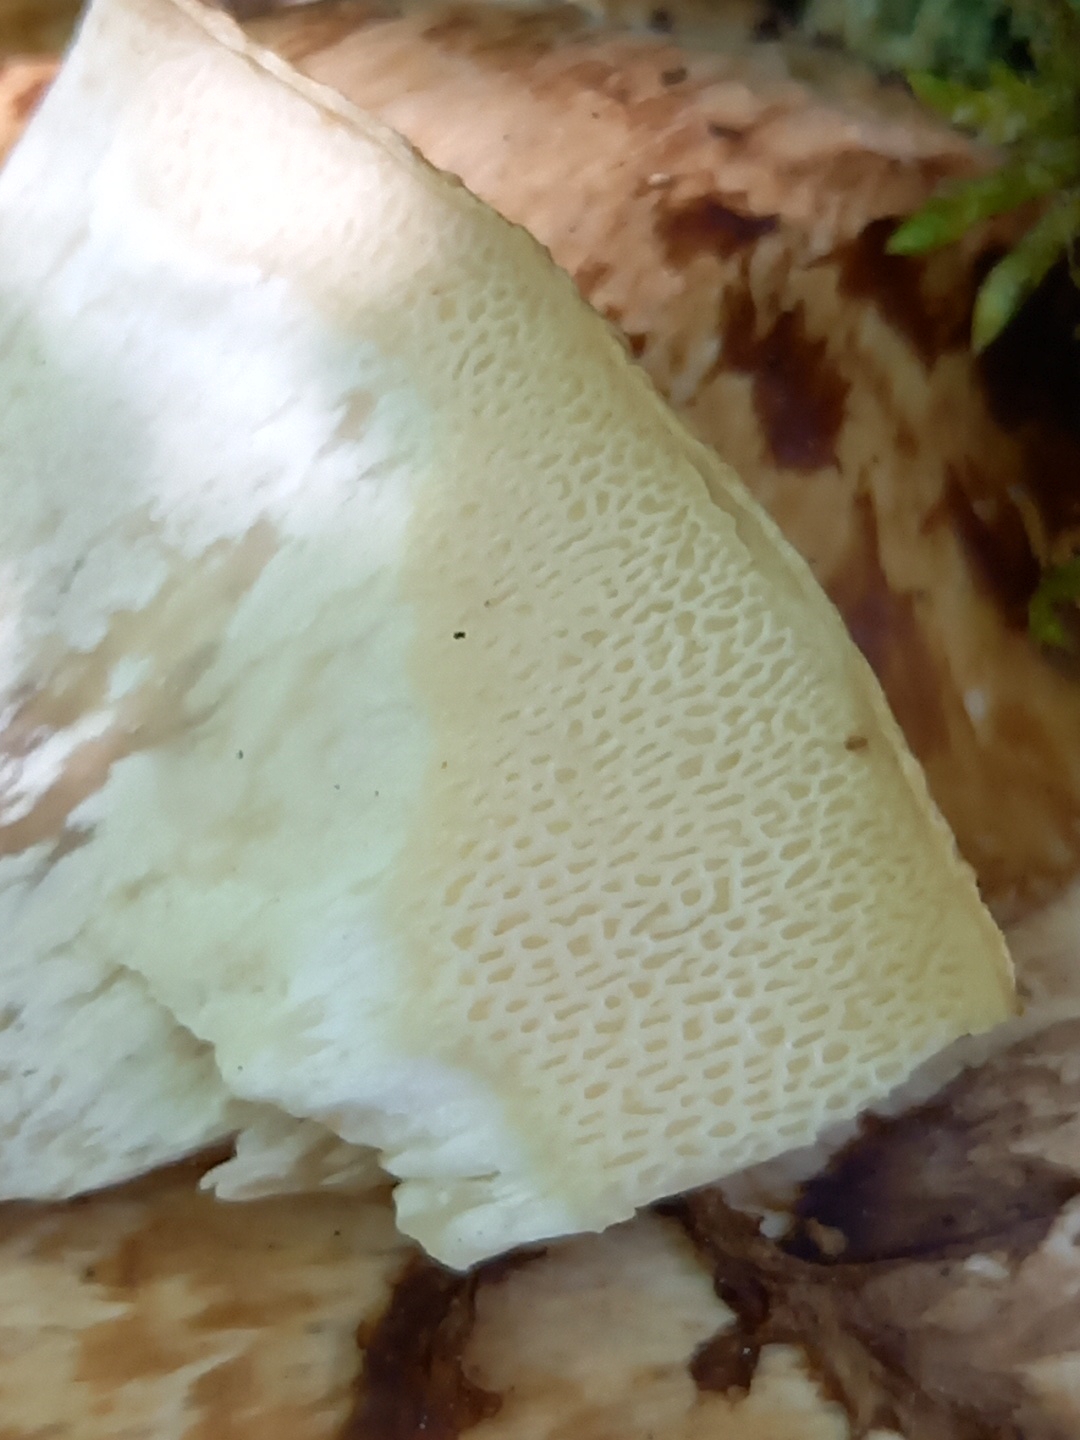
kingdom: Fungi
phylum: Basidiomycota
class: Agaricomycetes
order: Polyporales
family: Polyporaceae
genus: Cerioporus
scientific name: Cerioporus squamosus
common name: skællet stilkporesvamp
